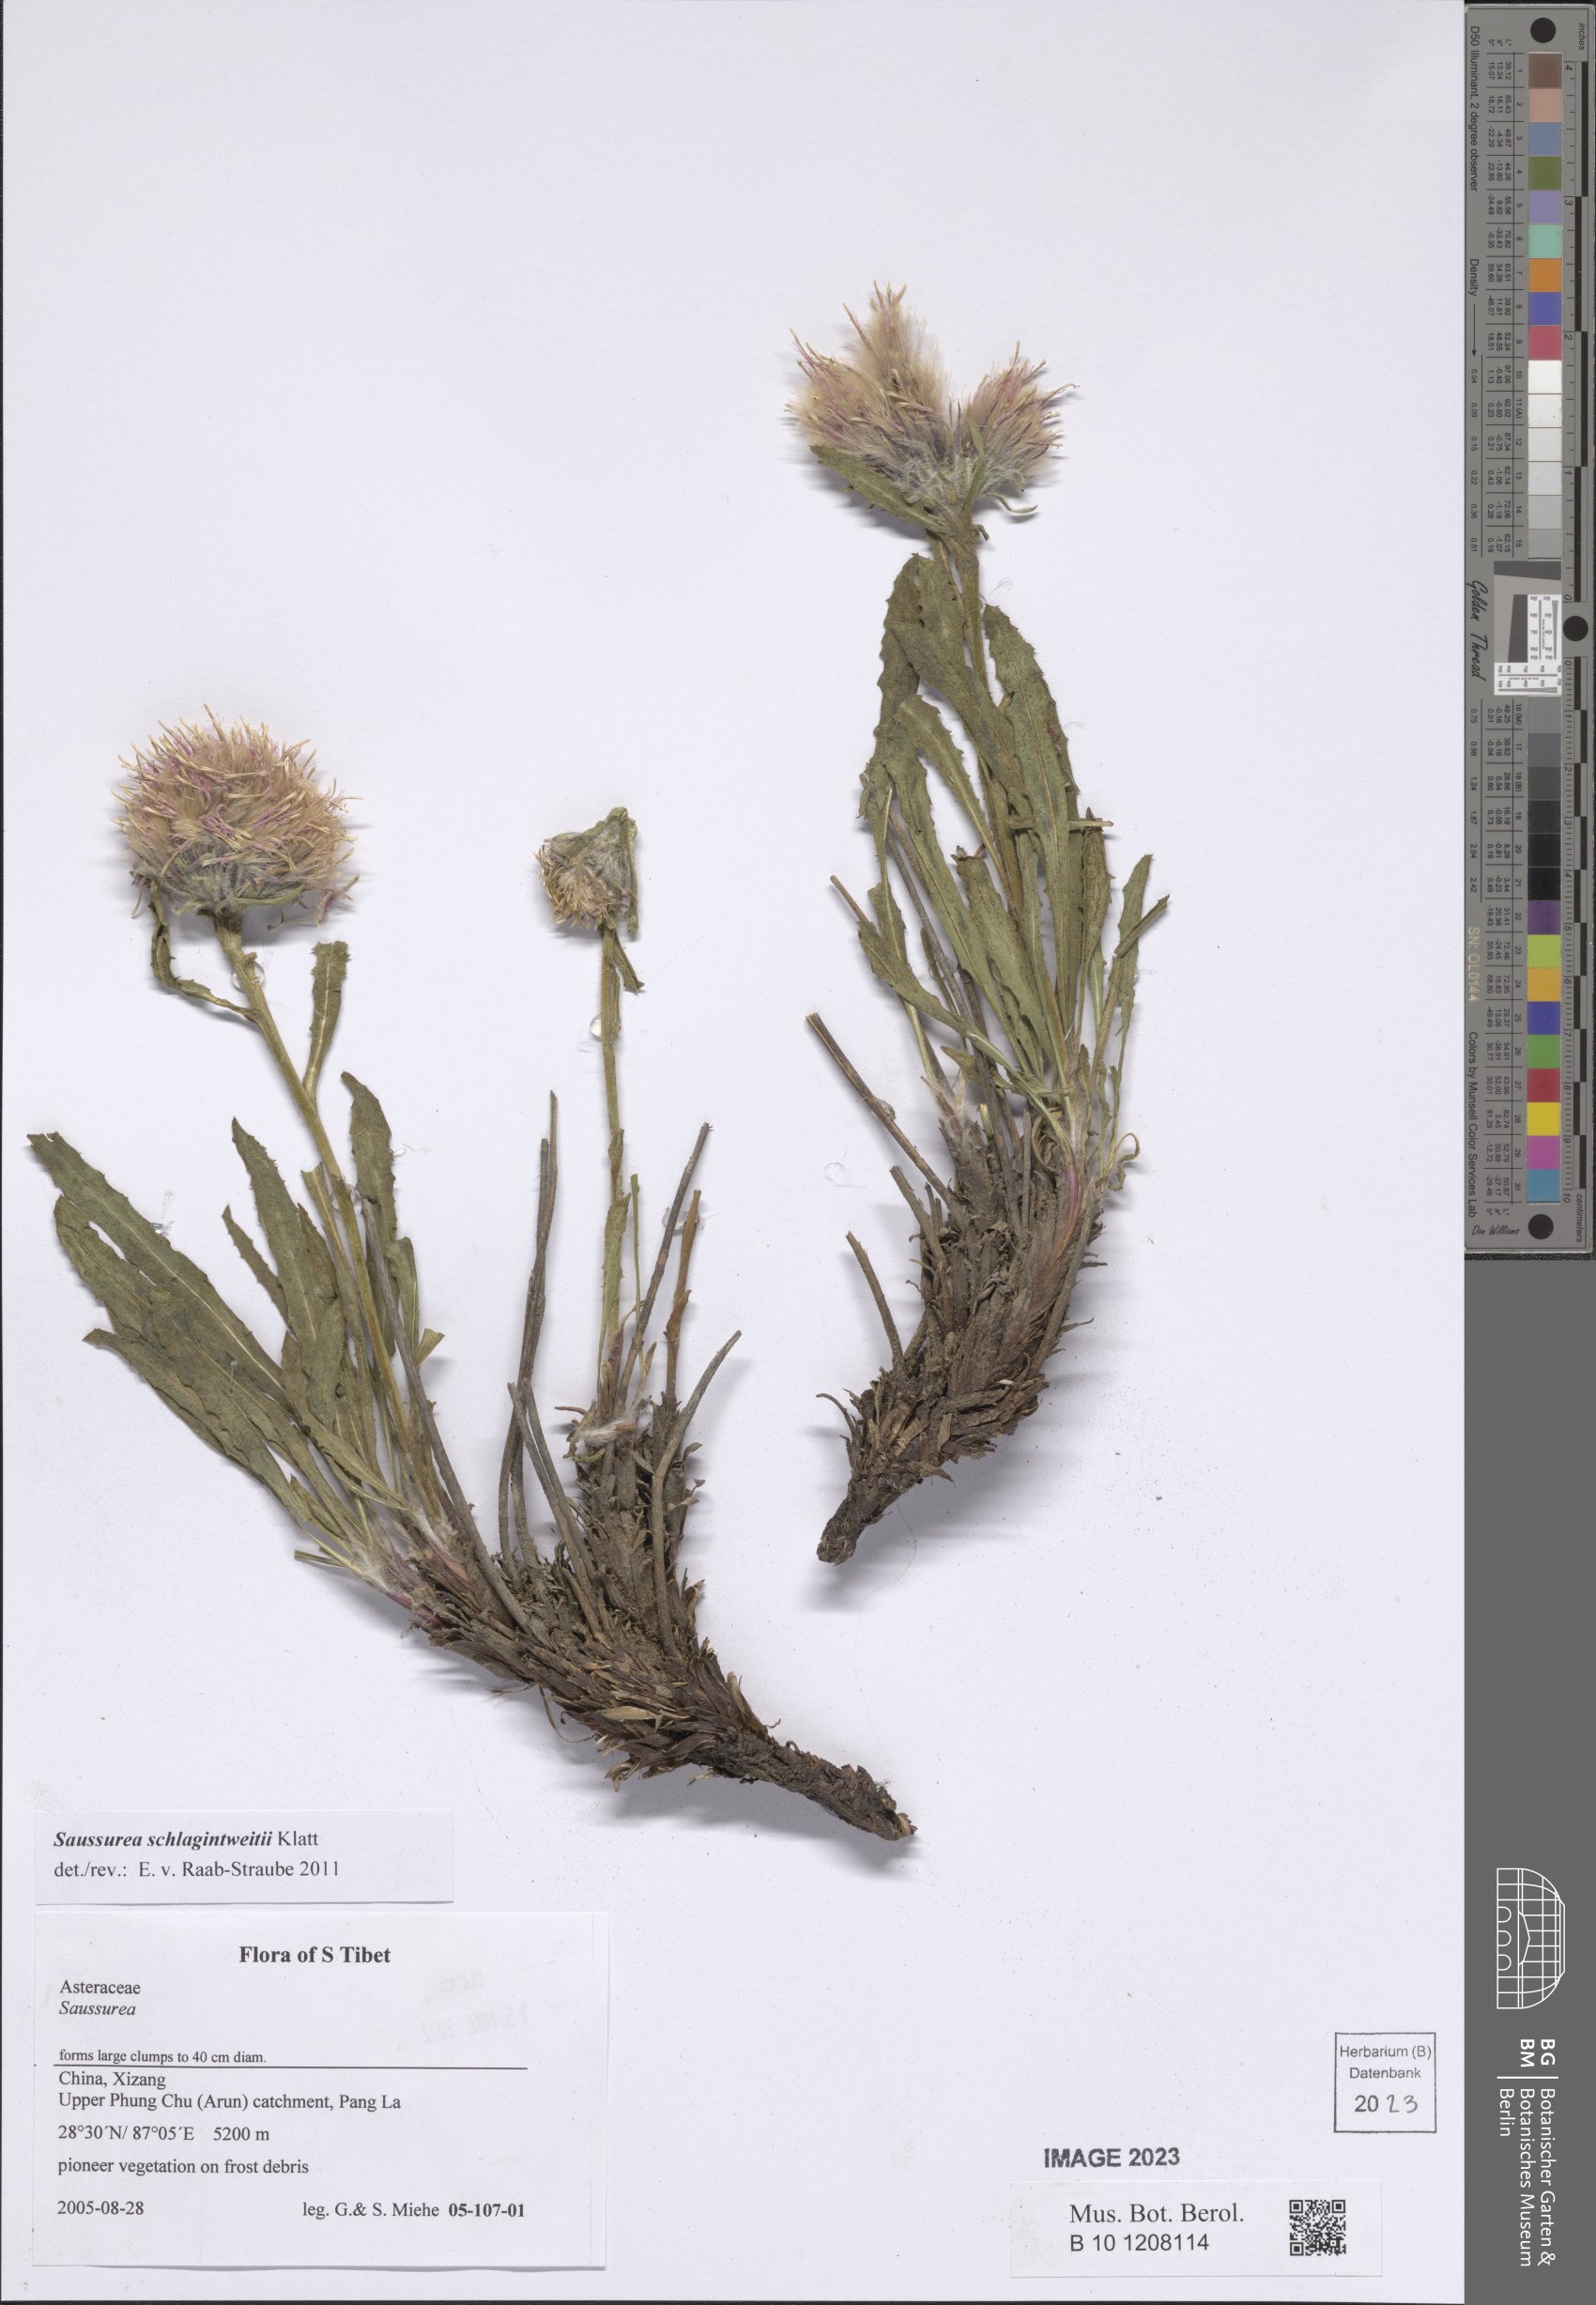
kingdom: Plantae
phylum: Tracheophyta
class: Magnoliopsida
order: Asterales
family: Asteraceae
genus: Saussurea
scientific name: Saussurea schlagintweitii
